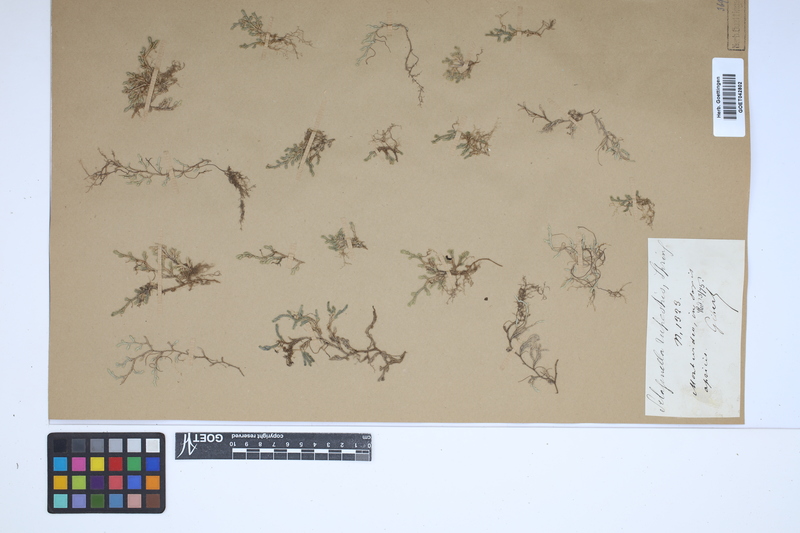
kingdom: Plantae
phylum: Tracheophyta
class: Lycopodiopsida
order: Selaginellales
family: Selaginellaceae
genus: Selaginella
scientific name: Selaginella rupestris
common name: Dwarf spikemoss
